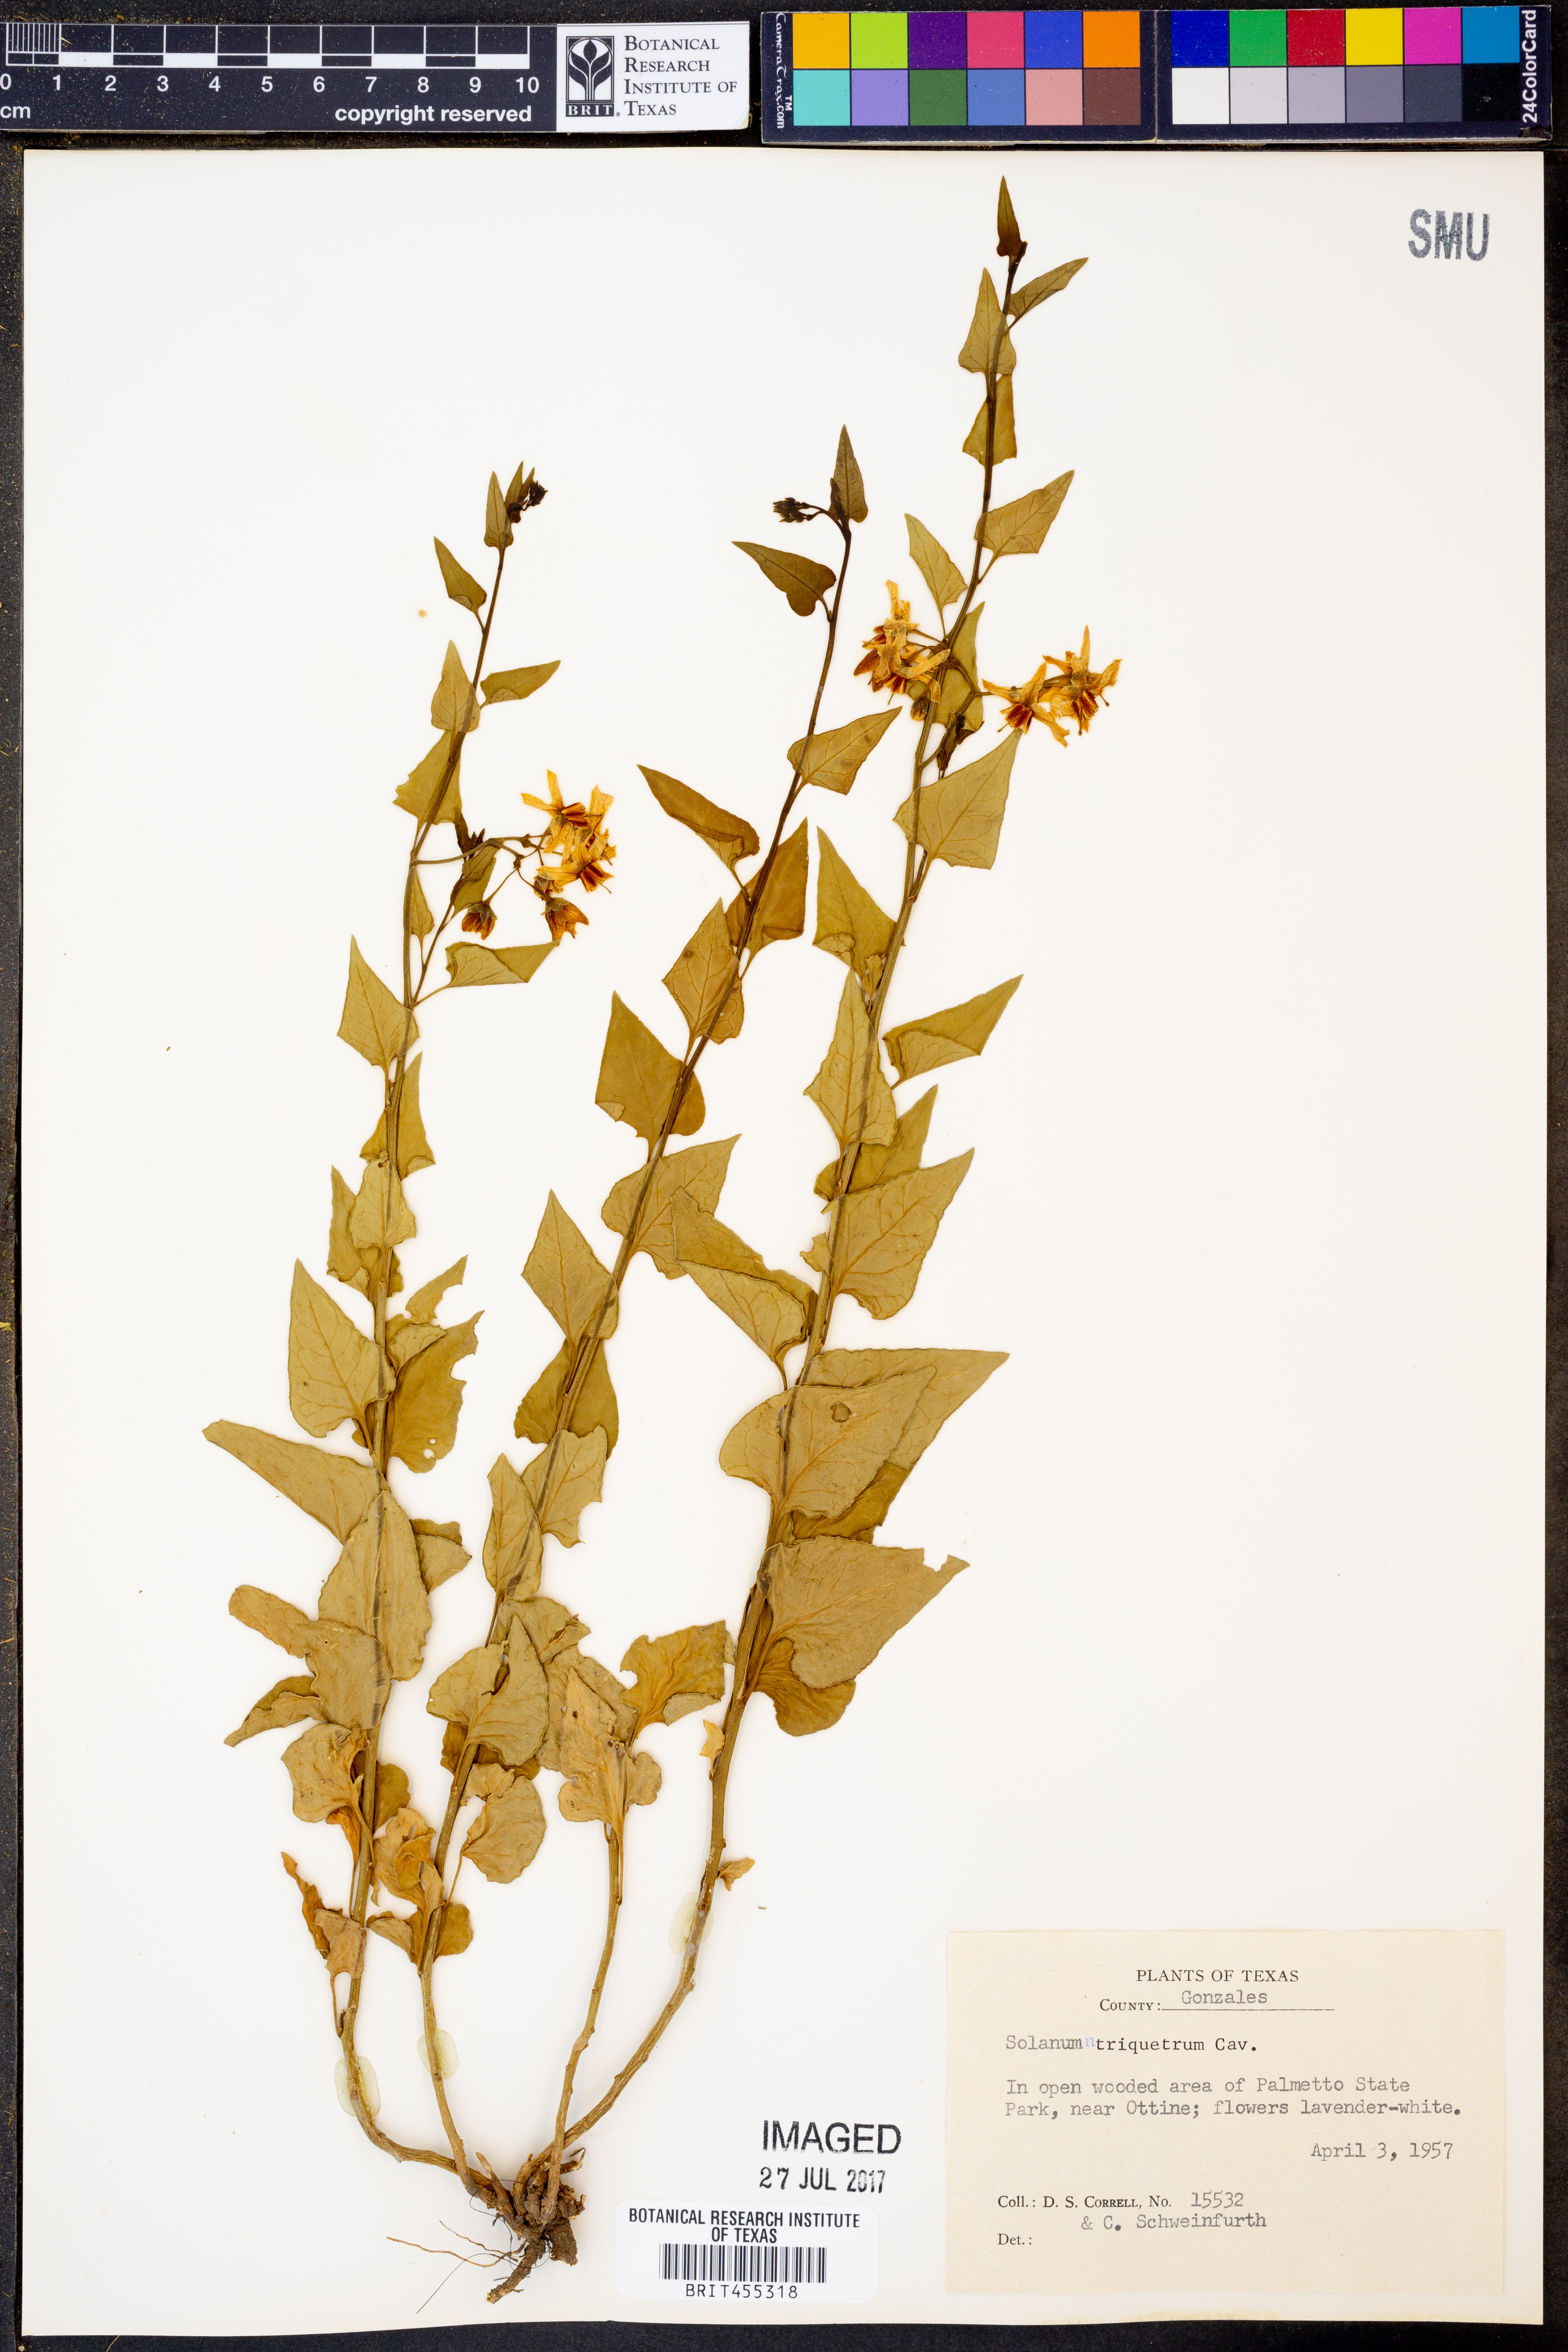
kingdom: Plantae
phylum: Tracheophyta
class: Magnoliopsida
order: Solanales
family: Solanaceae
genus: Solanum
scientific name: Solanum triquetrum
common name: Texas nightshade
